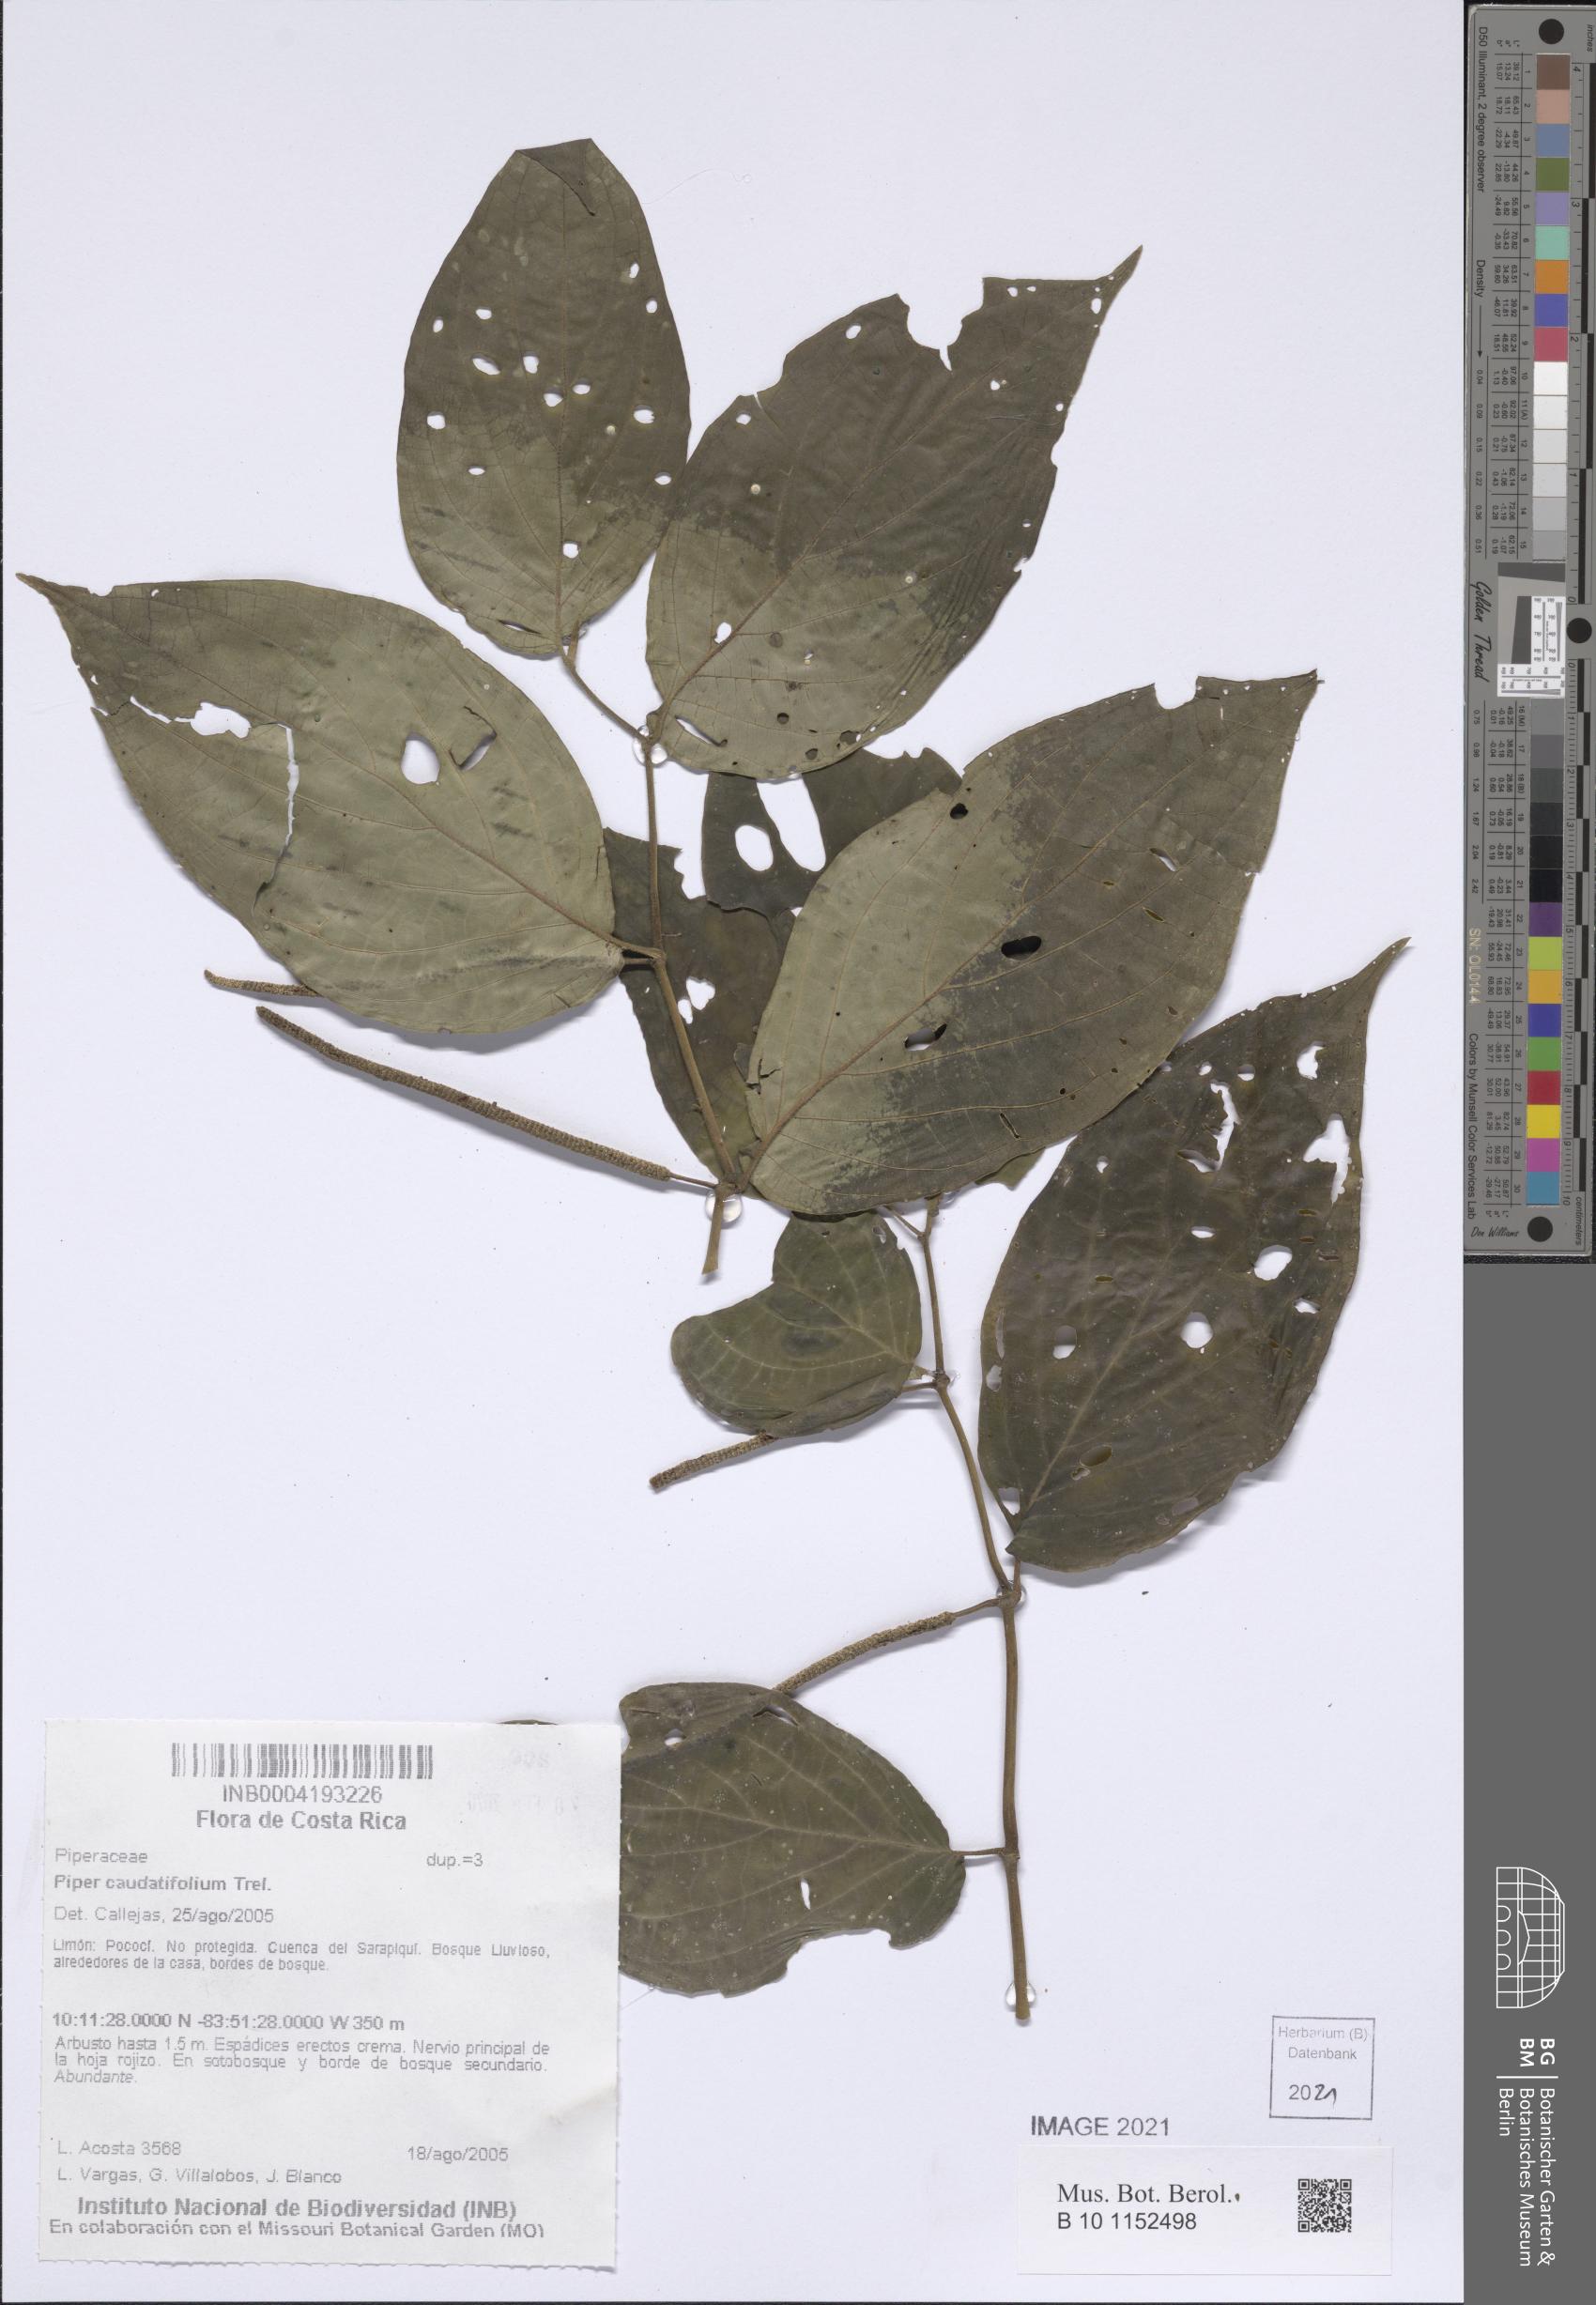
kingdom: Plantae
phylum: Tracheophyta
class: Magnoliopsida
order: Piperales
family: Piperaceae
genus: Piper
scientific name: Piper caudatifolium
